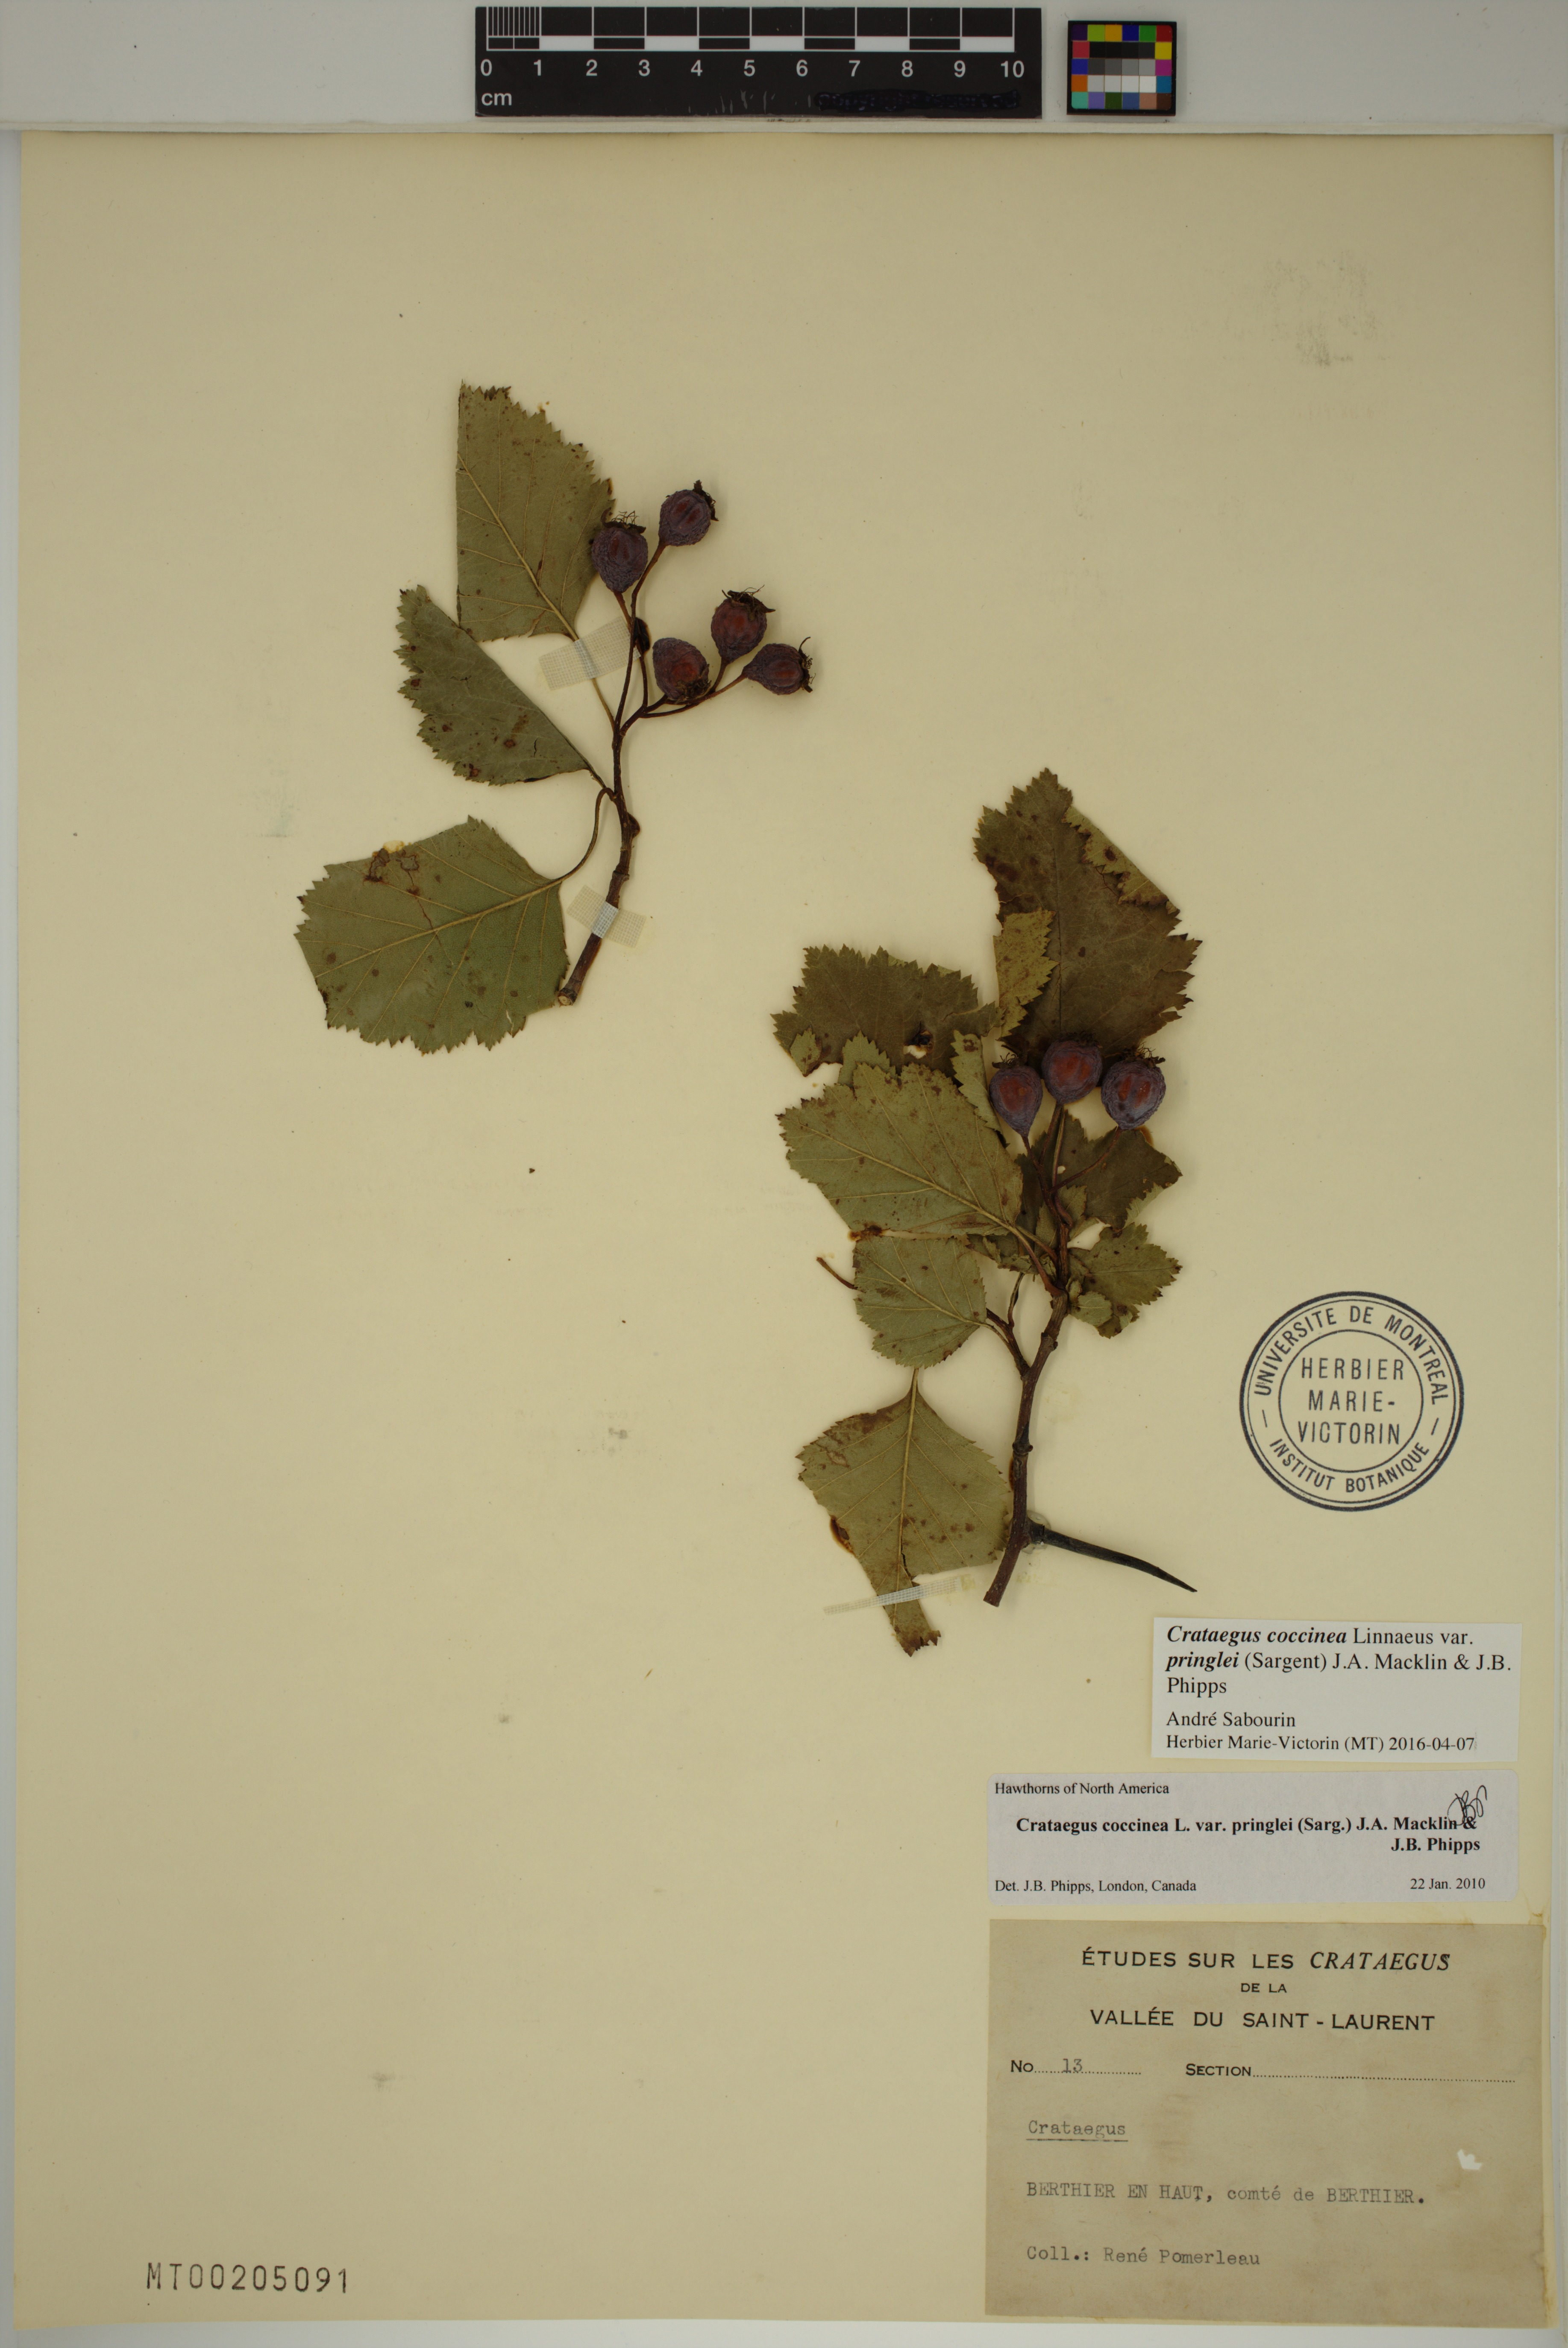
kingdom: Plantae
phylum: Tracheophyta
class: Magnoliopsida
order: Rosales
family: Rosaceae
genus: Crataegus
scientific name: Crataegus
